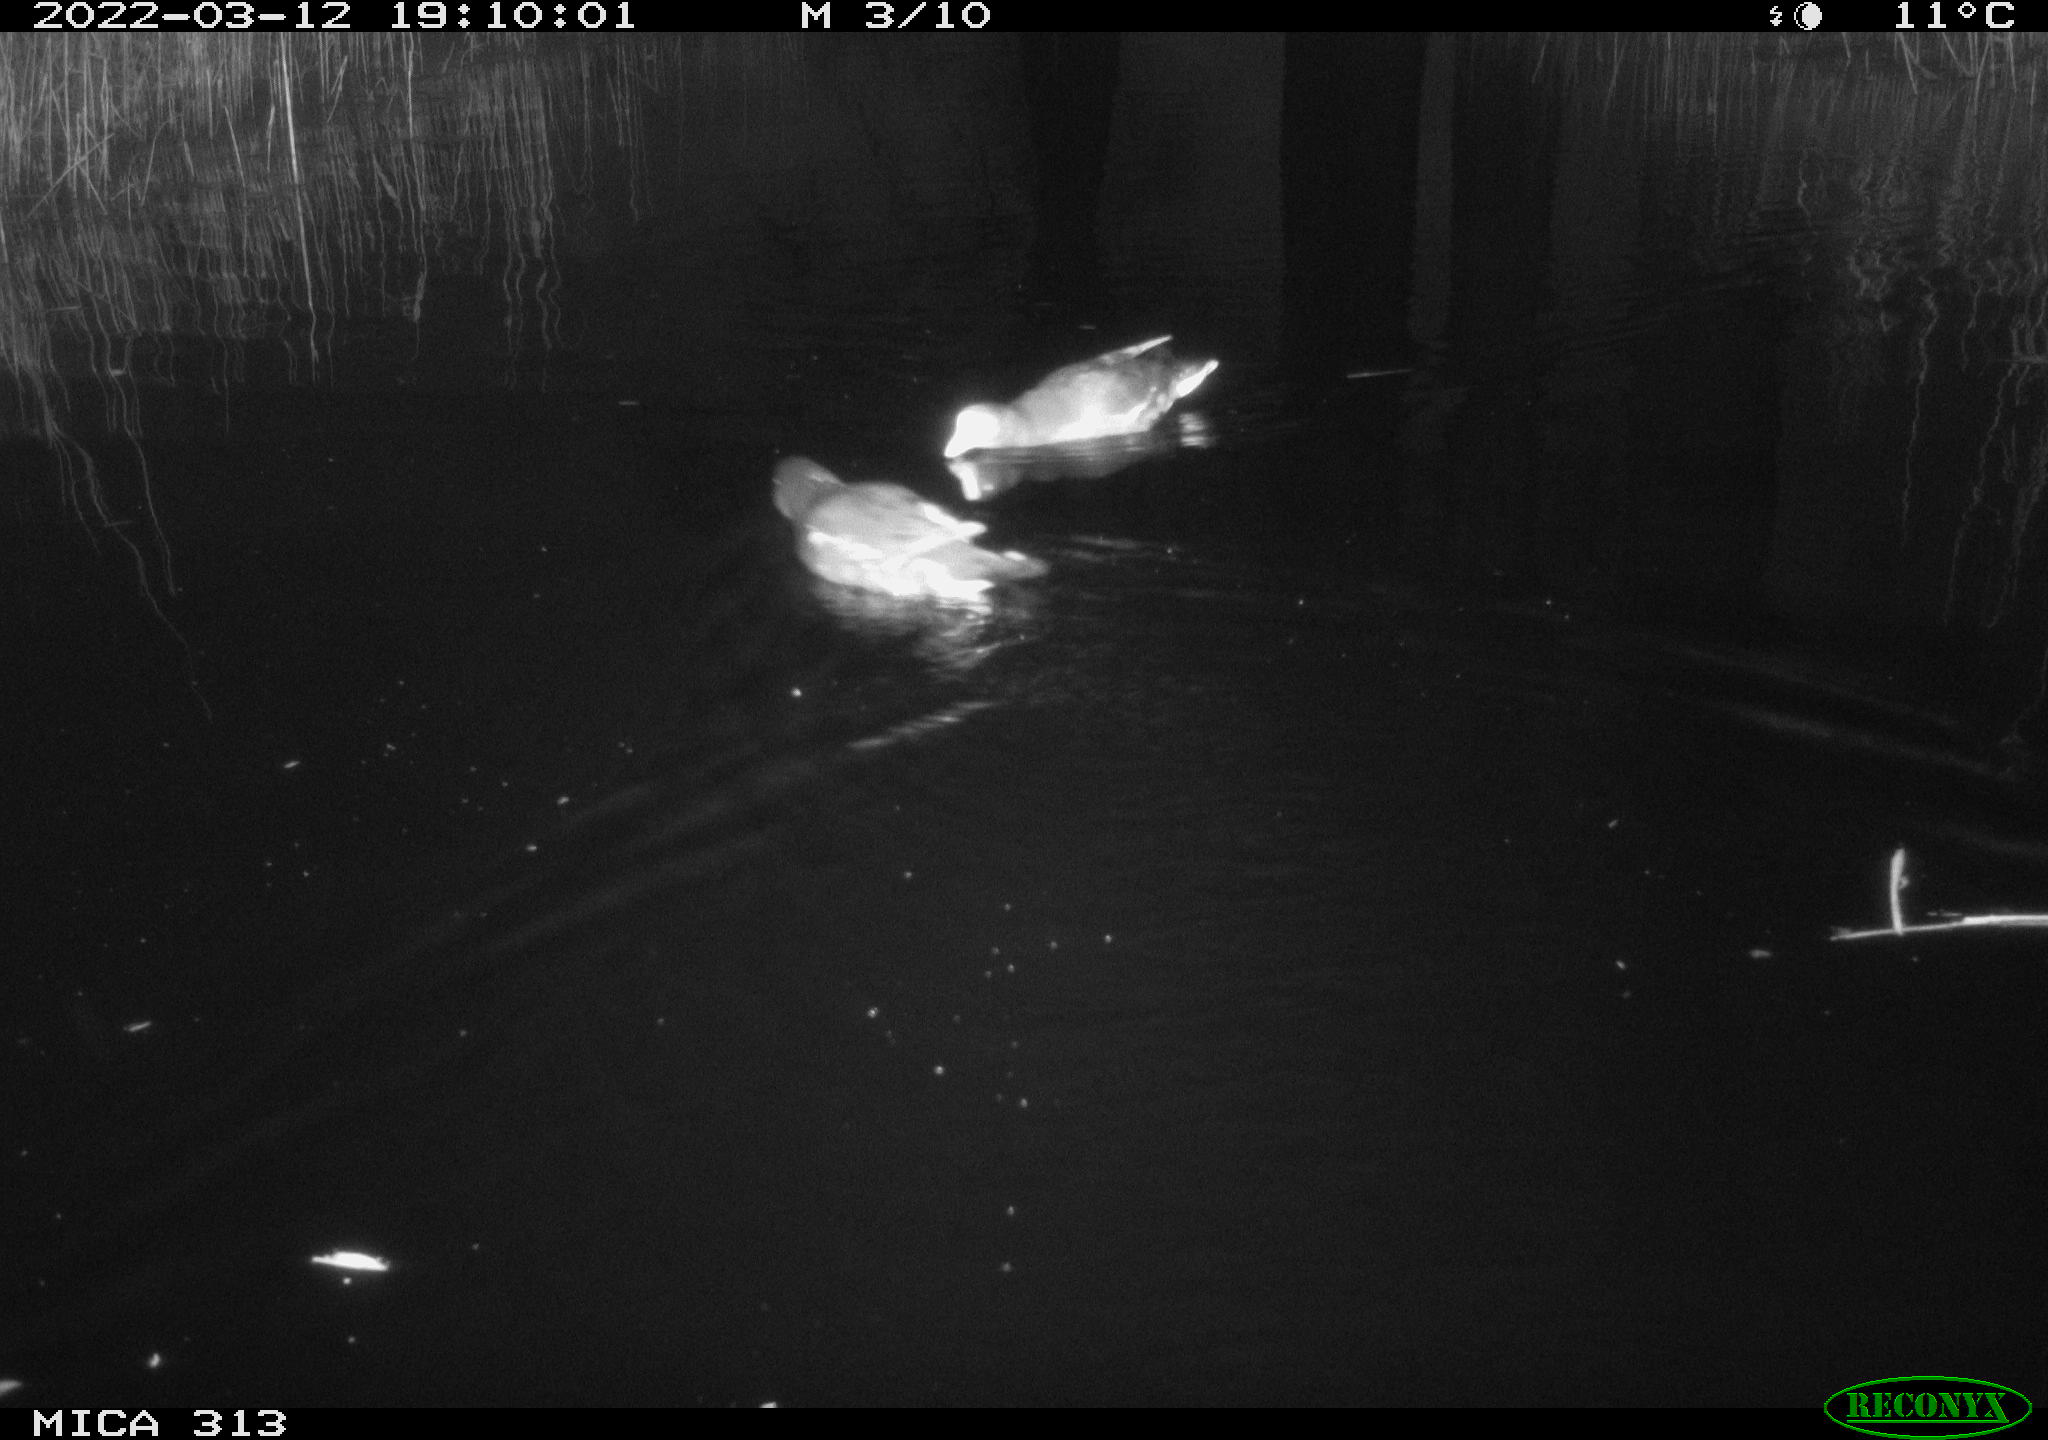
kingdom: Animalia
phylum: Chordata
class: Aves
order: Gruiformes
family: Rallidae
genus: Fulica
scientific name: Fulica atra
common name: Eurasian coot
